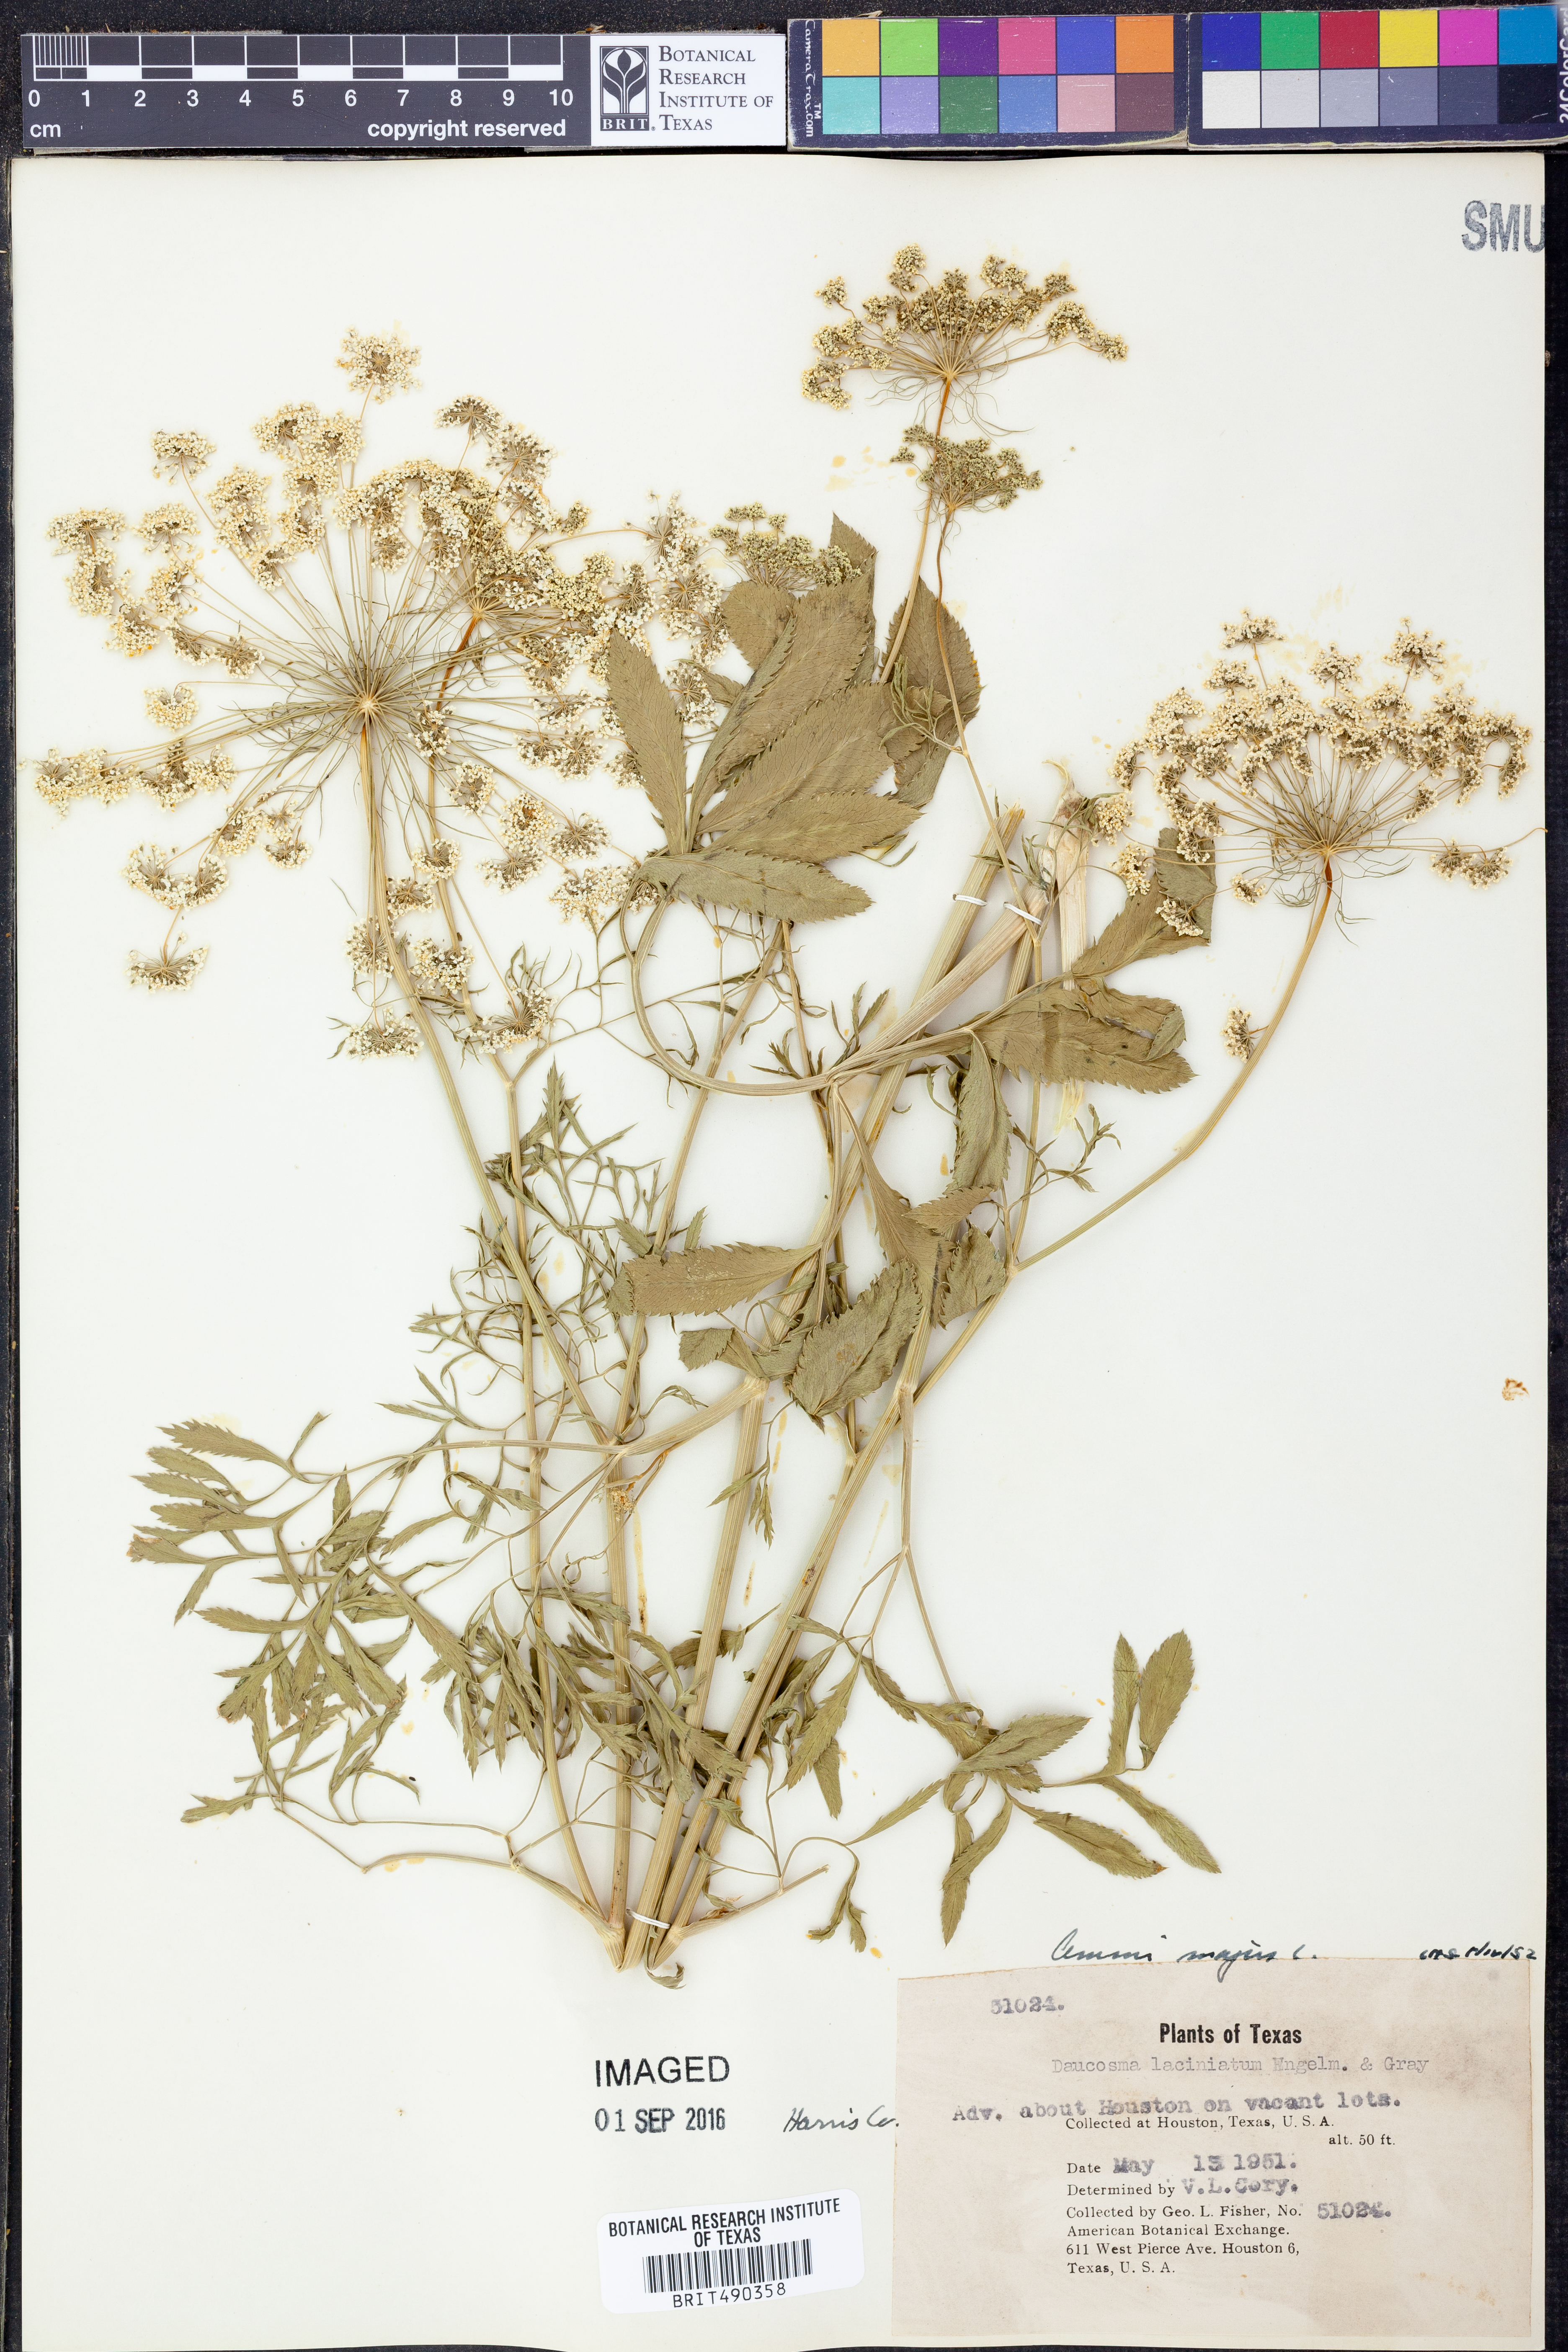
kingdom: Plantae
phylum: Tracheophyta
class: Magnoliopsida
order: Apiales
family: Apiaceae
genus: Ammi
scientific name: Ammi majus
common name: Bullwort
